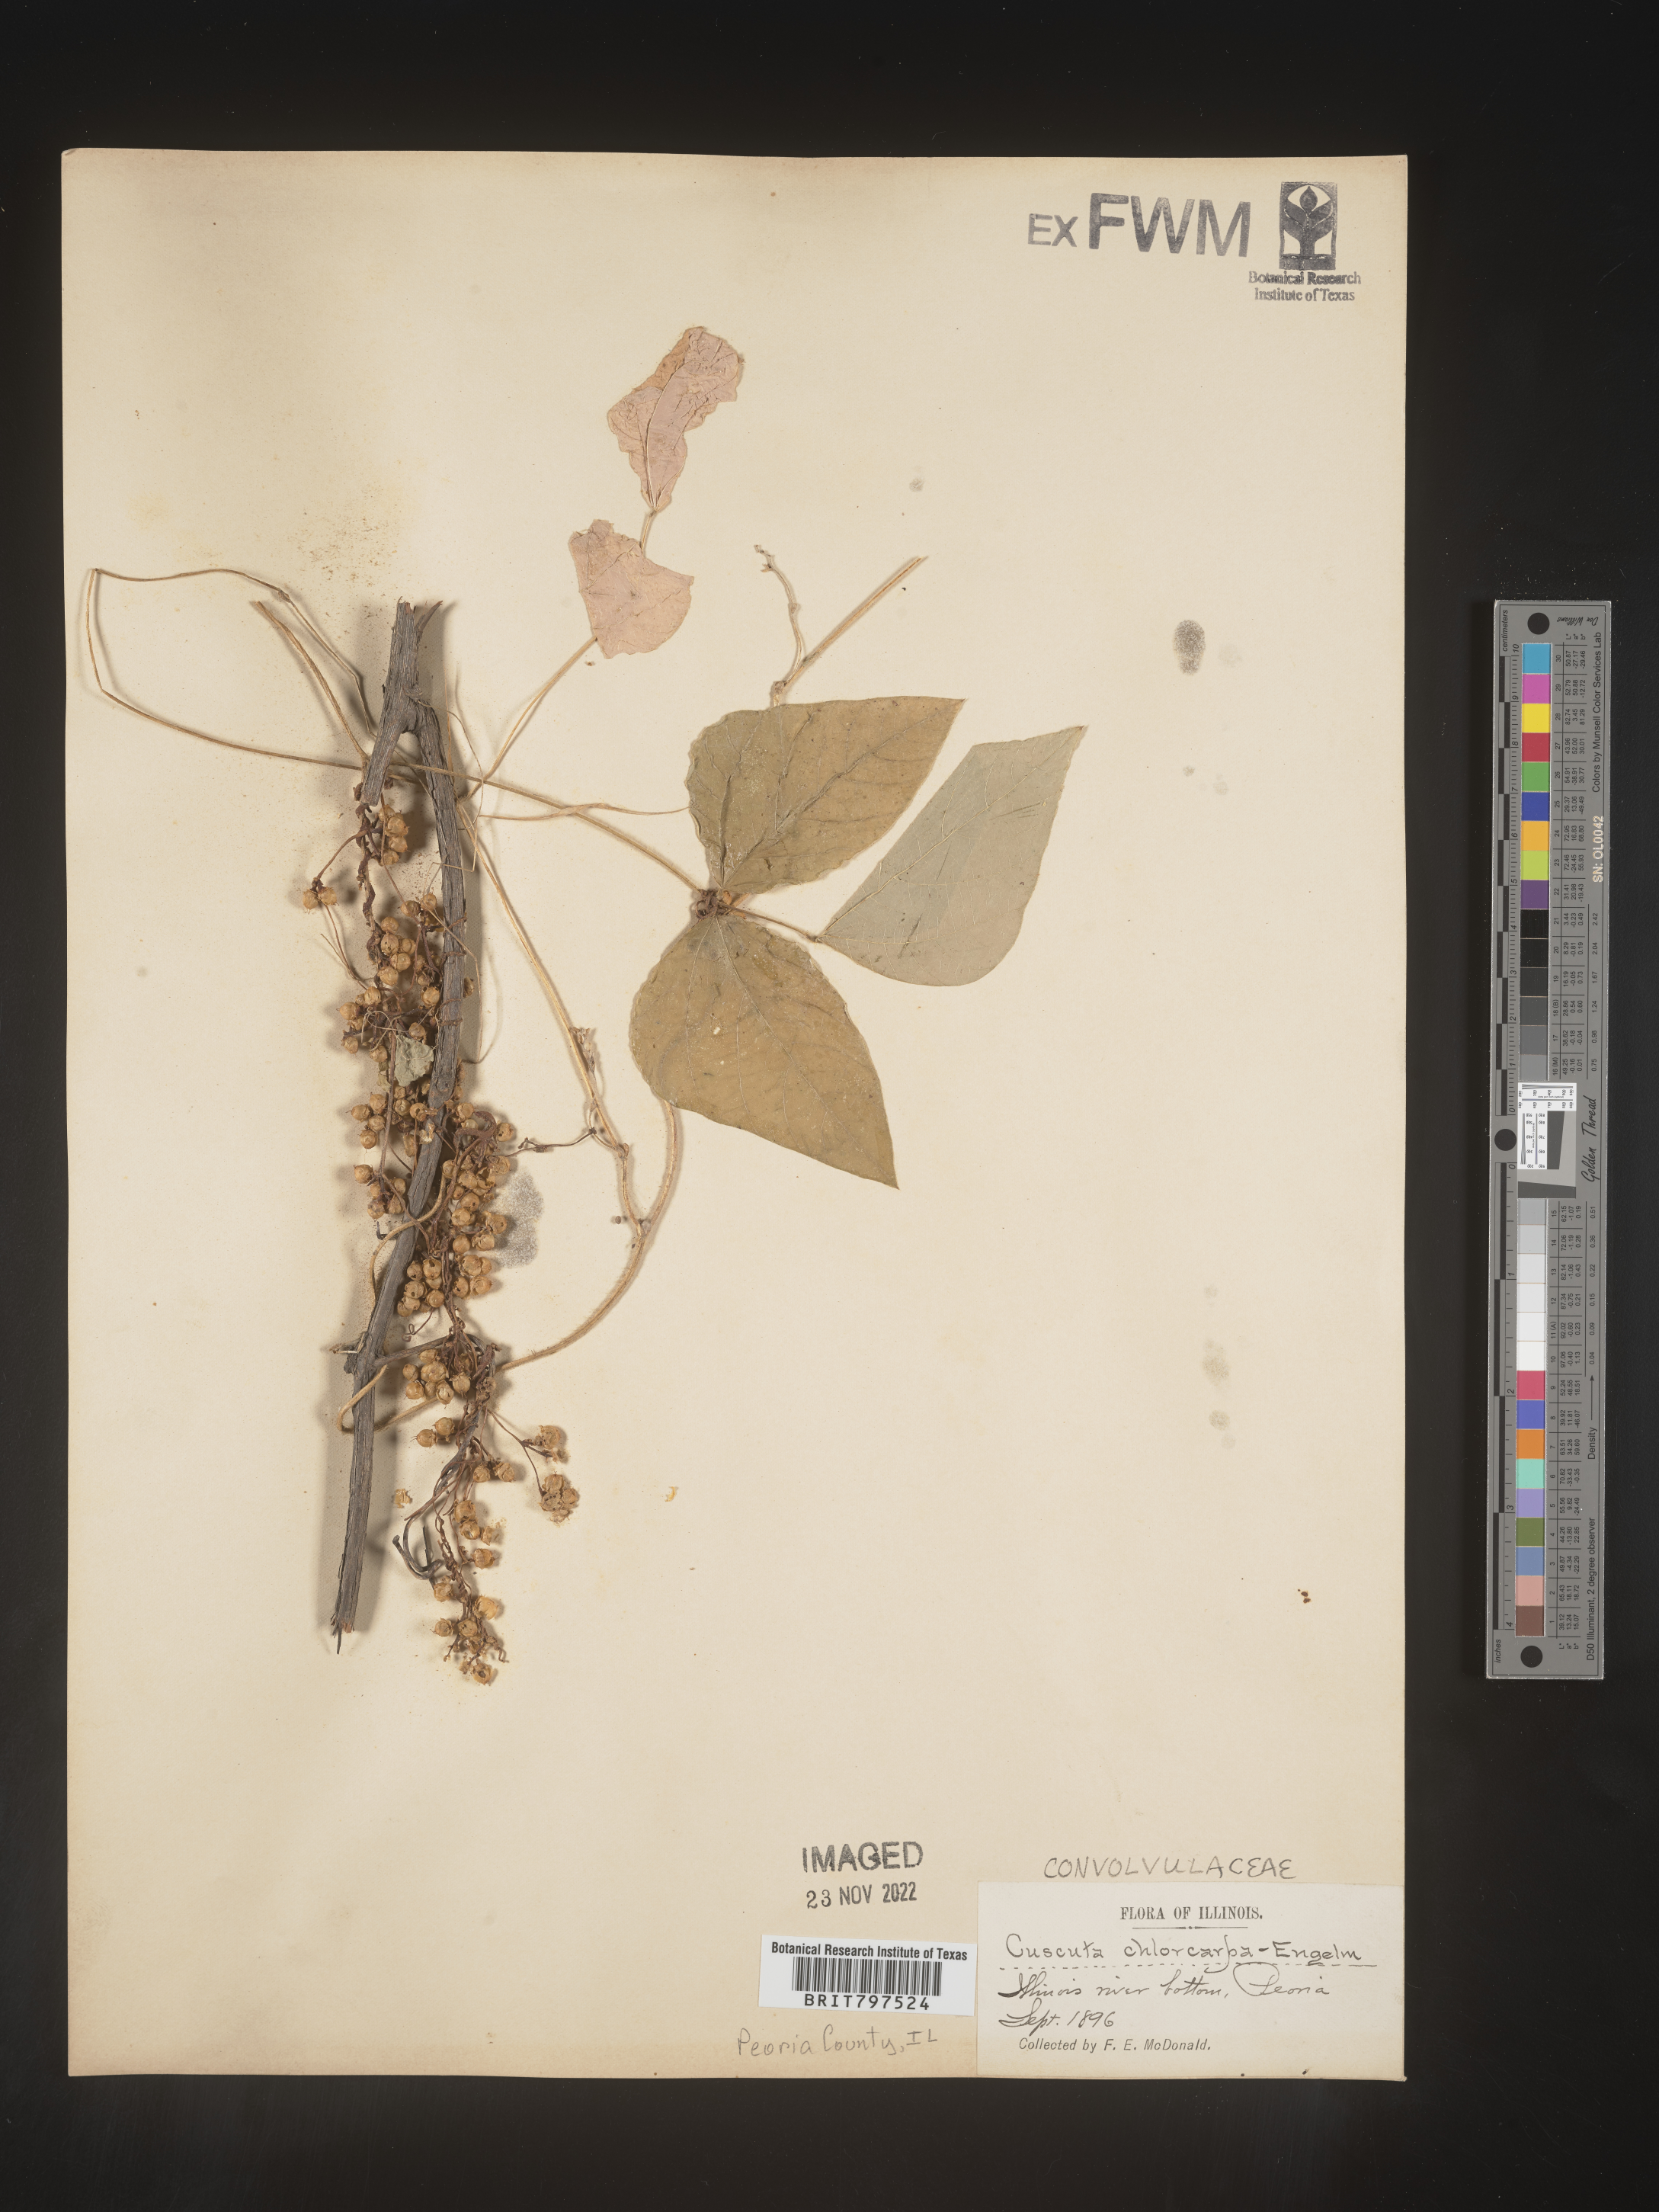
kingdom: Plantae
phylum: Tracheophyta
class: Magnoliopsida
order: Solanales
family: Convolvulaceae
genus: Cuscuta
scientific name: Cuscuta
